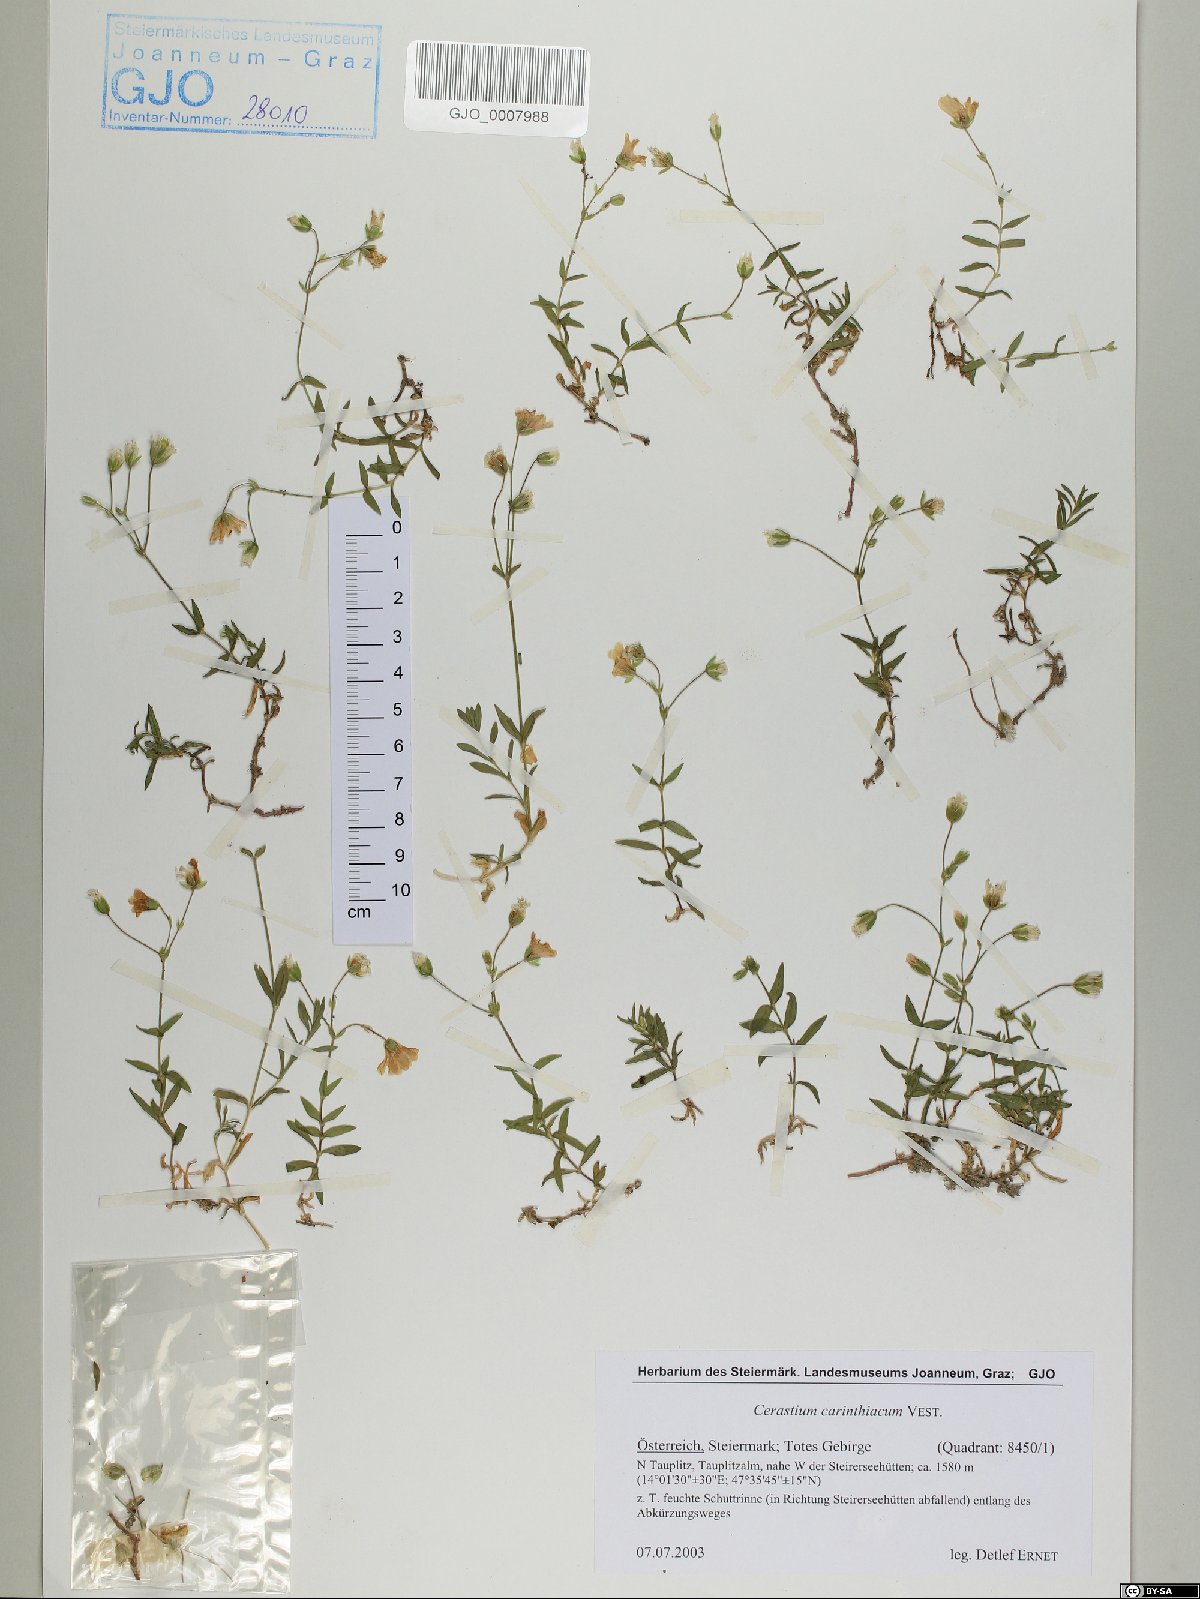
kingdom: Plantae
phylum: Tracheophyta
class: Magnoliopsida
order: Caryophyllales
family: Caryophyllaceae
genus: Cerastium
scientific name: Cerastium carinthiacum
